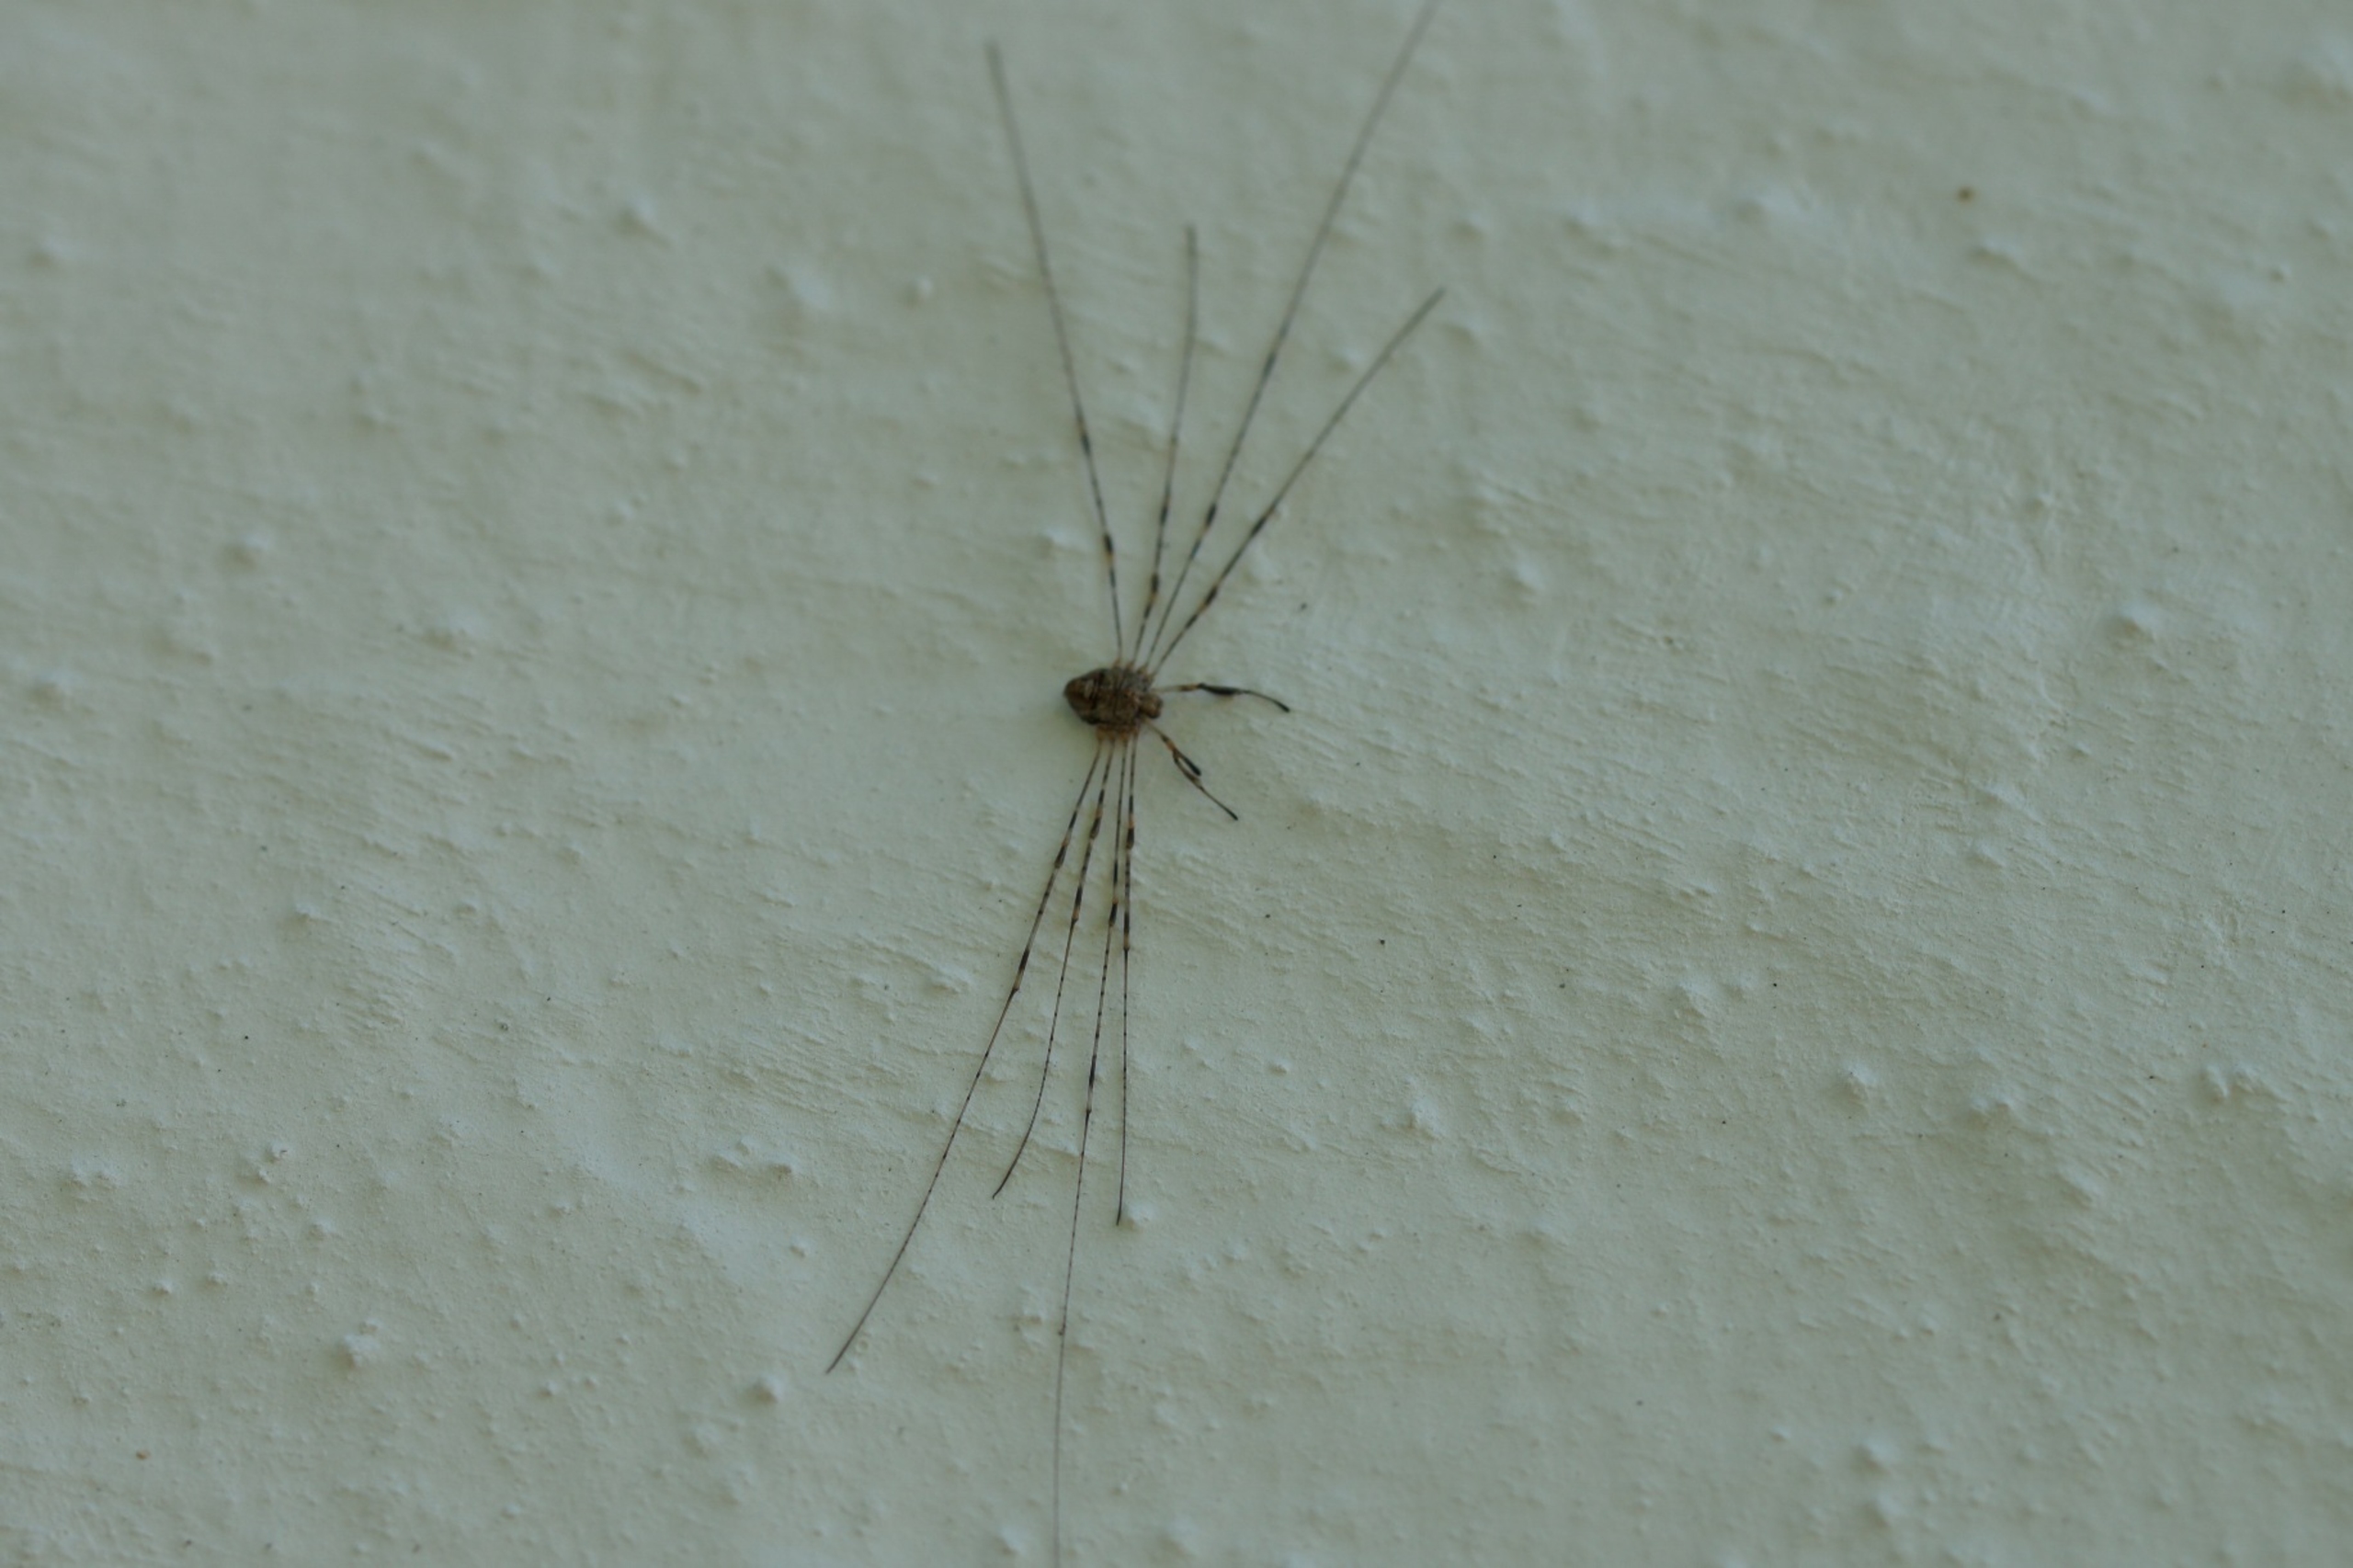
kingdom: Animalia
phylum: Arthropoda
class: Arachnida
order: Opiliones
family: Phalangiidae
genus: Dicranopalpus
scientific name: Dicranopalpus ramosus
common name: Gaffelmejer
